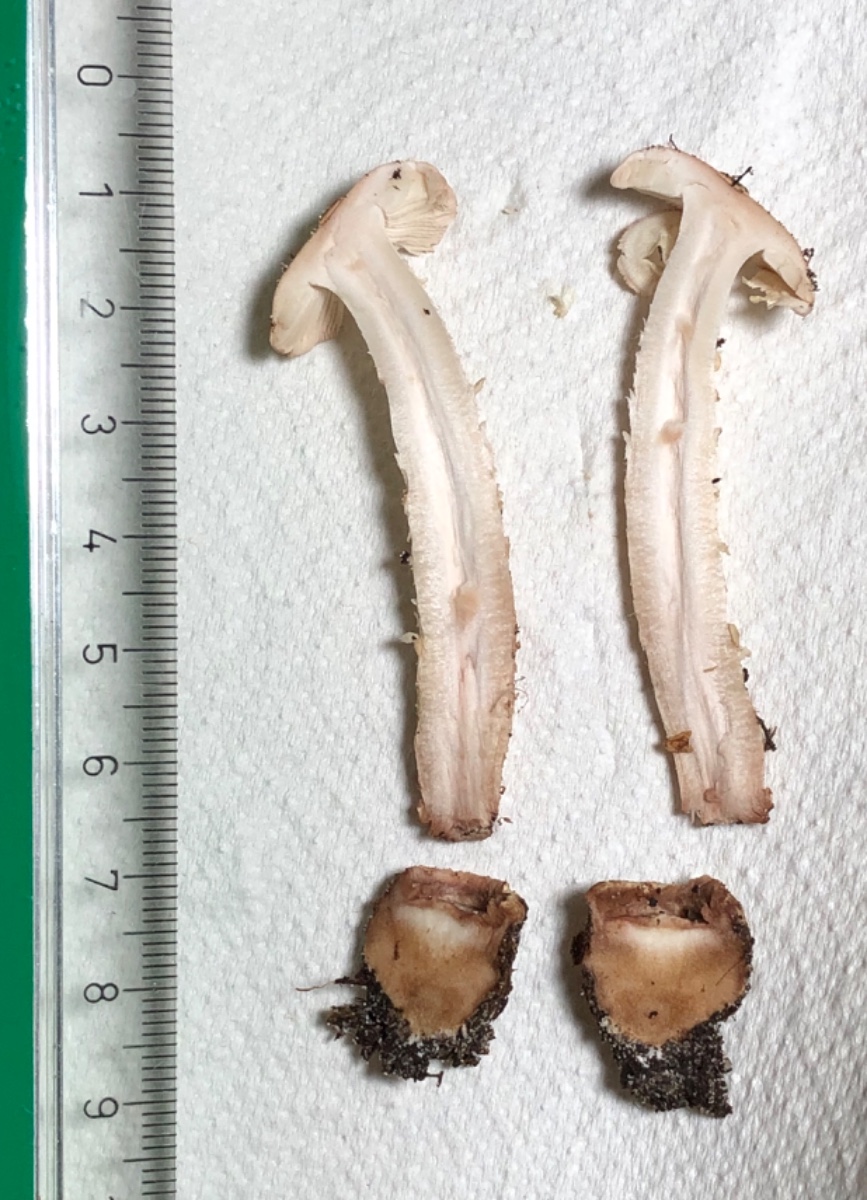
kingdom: Fungi
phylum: Basidiomycota
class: Agaricomycetes
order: Agaricales
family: Amanitaceae
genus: Amanita
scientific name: Amanita rubescens
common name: rødmende fluesvamp
